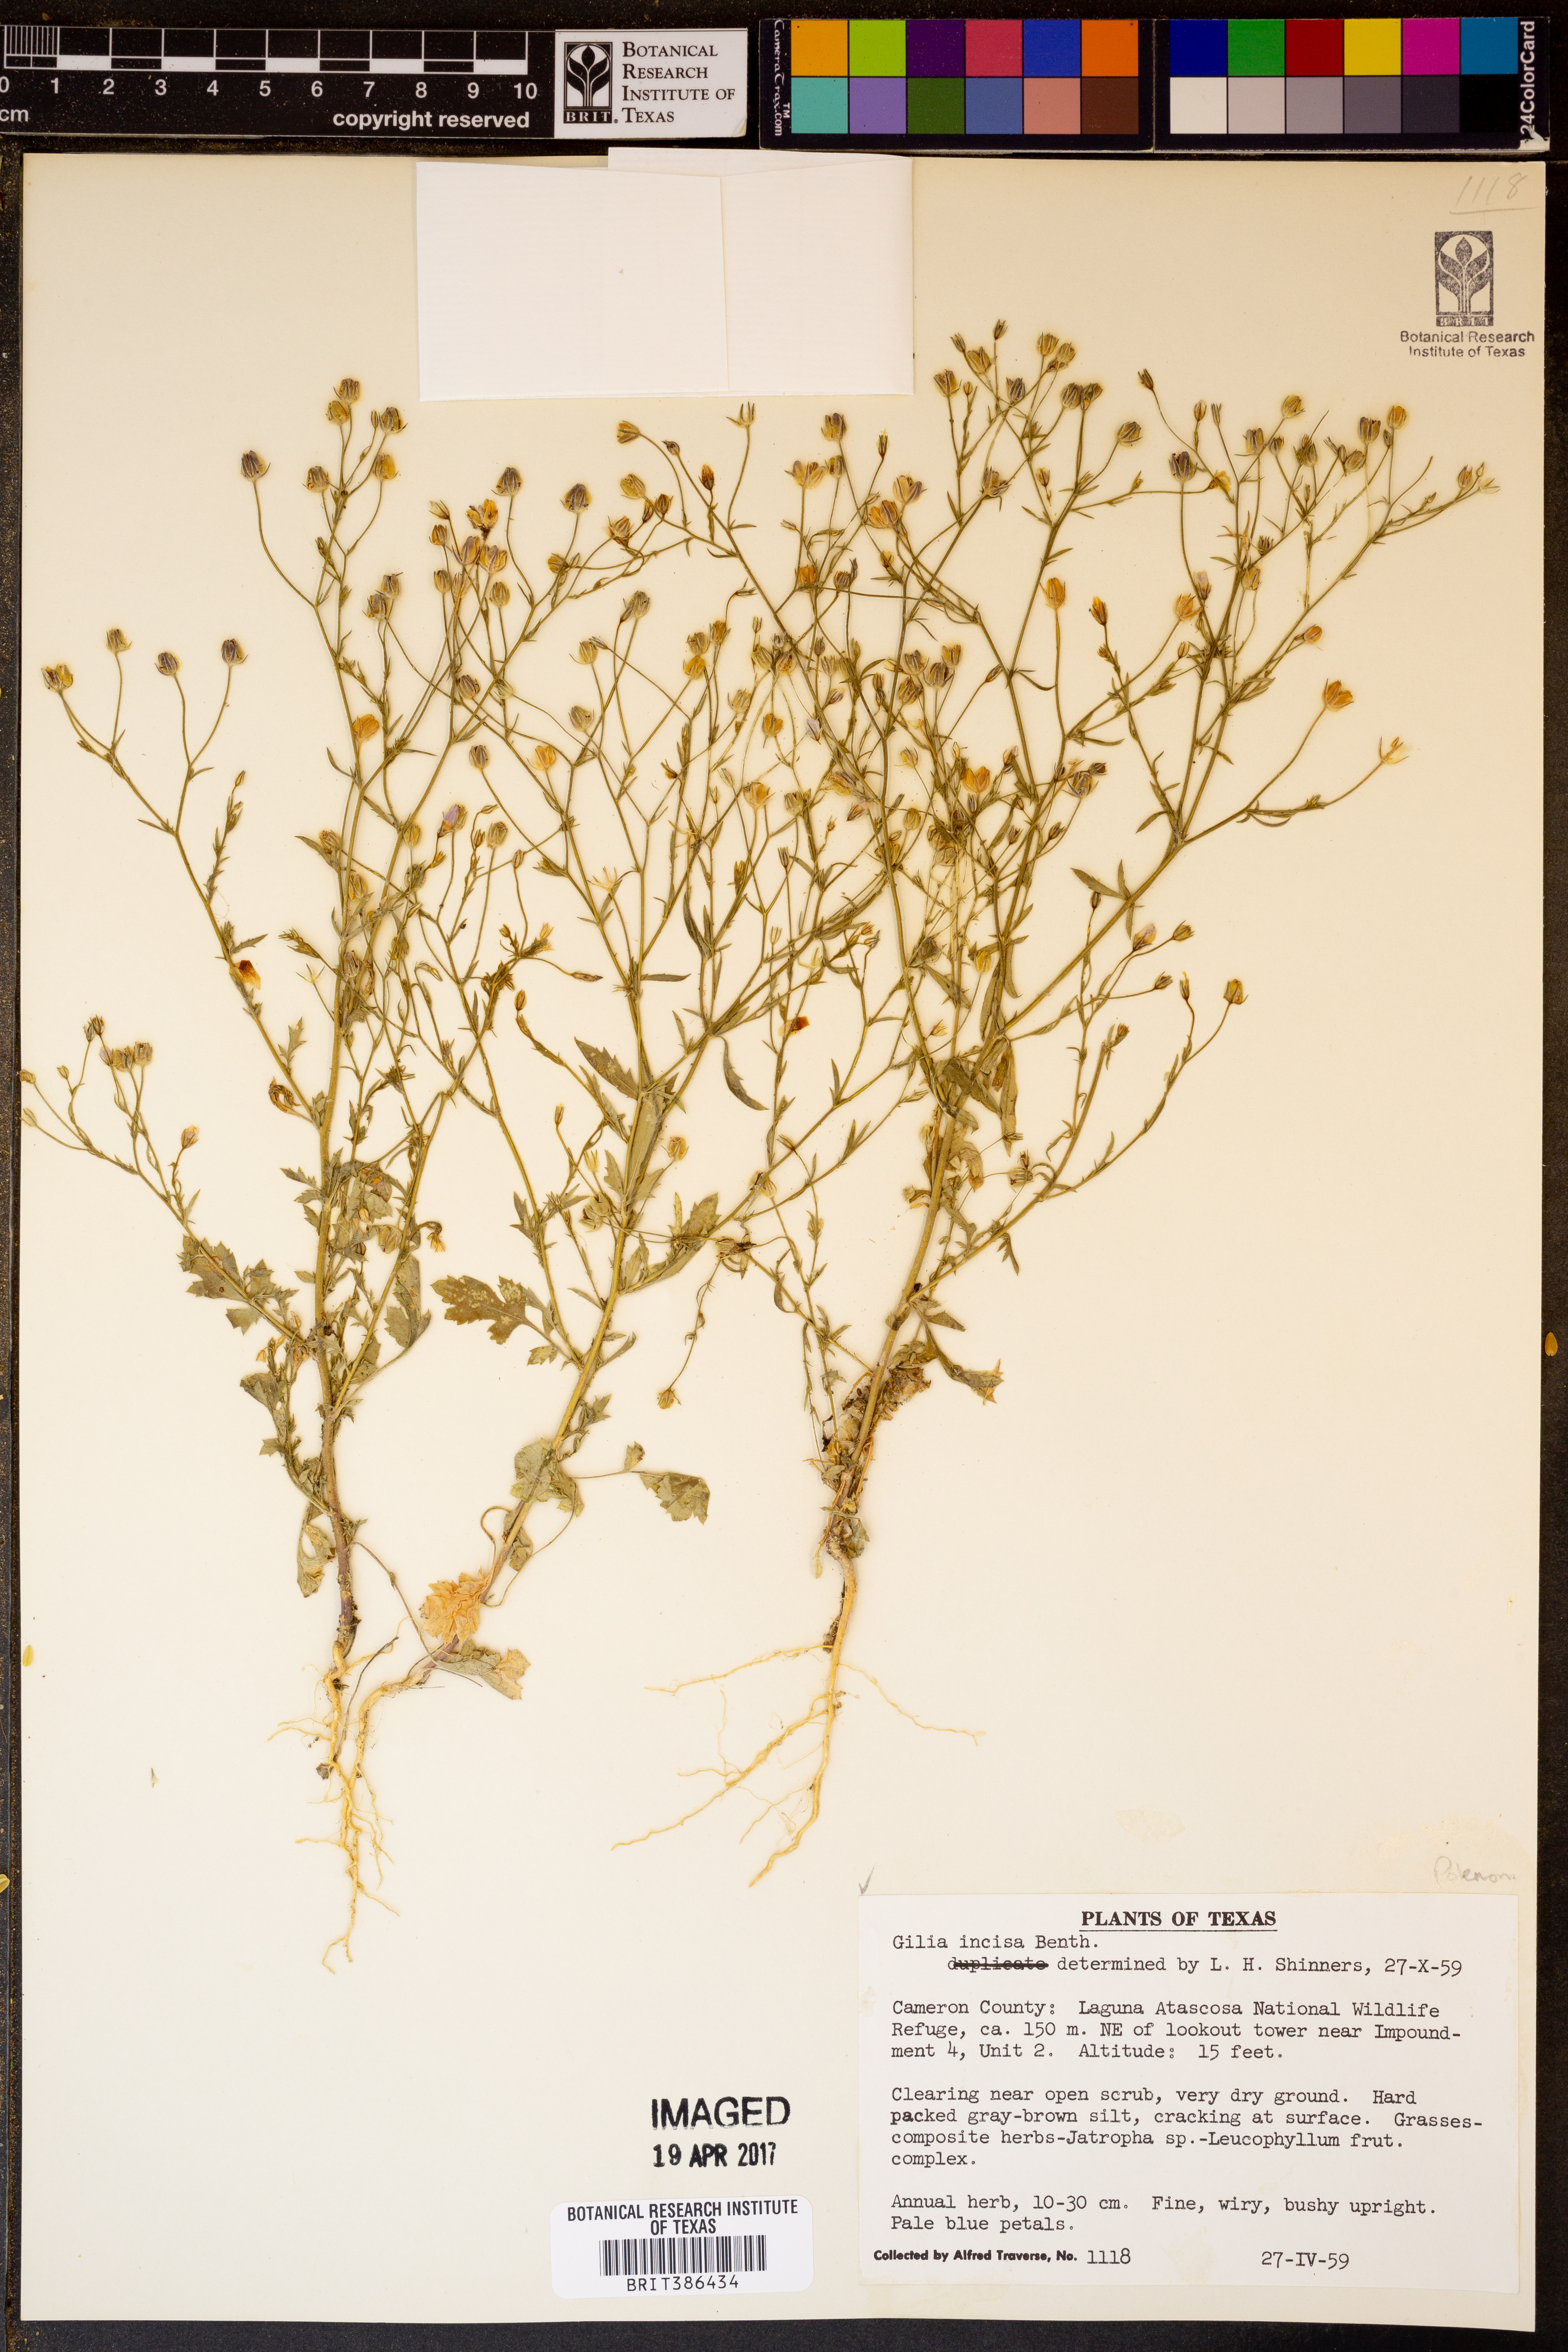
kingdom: Plantae
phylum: Tracheophyta
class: Magnoliopsida
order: Ericales
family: Polemoniaceae
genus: Giliastrum
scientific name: Giliastrum incisum
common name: Splitleaf gilia
